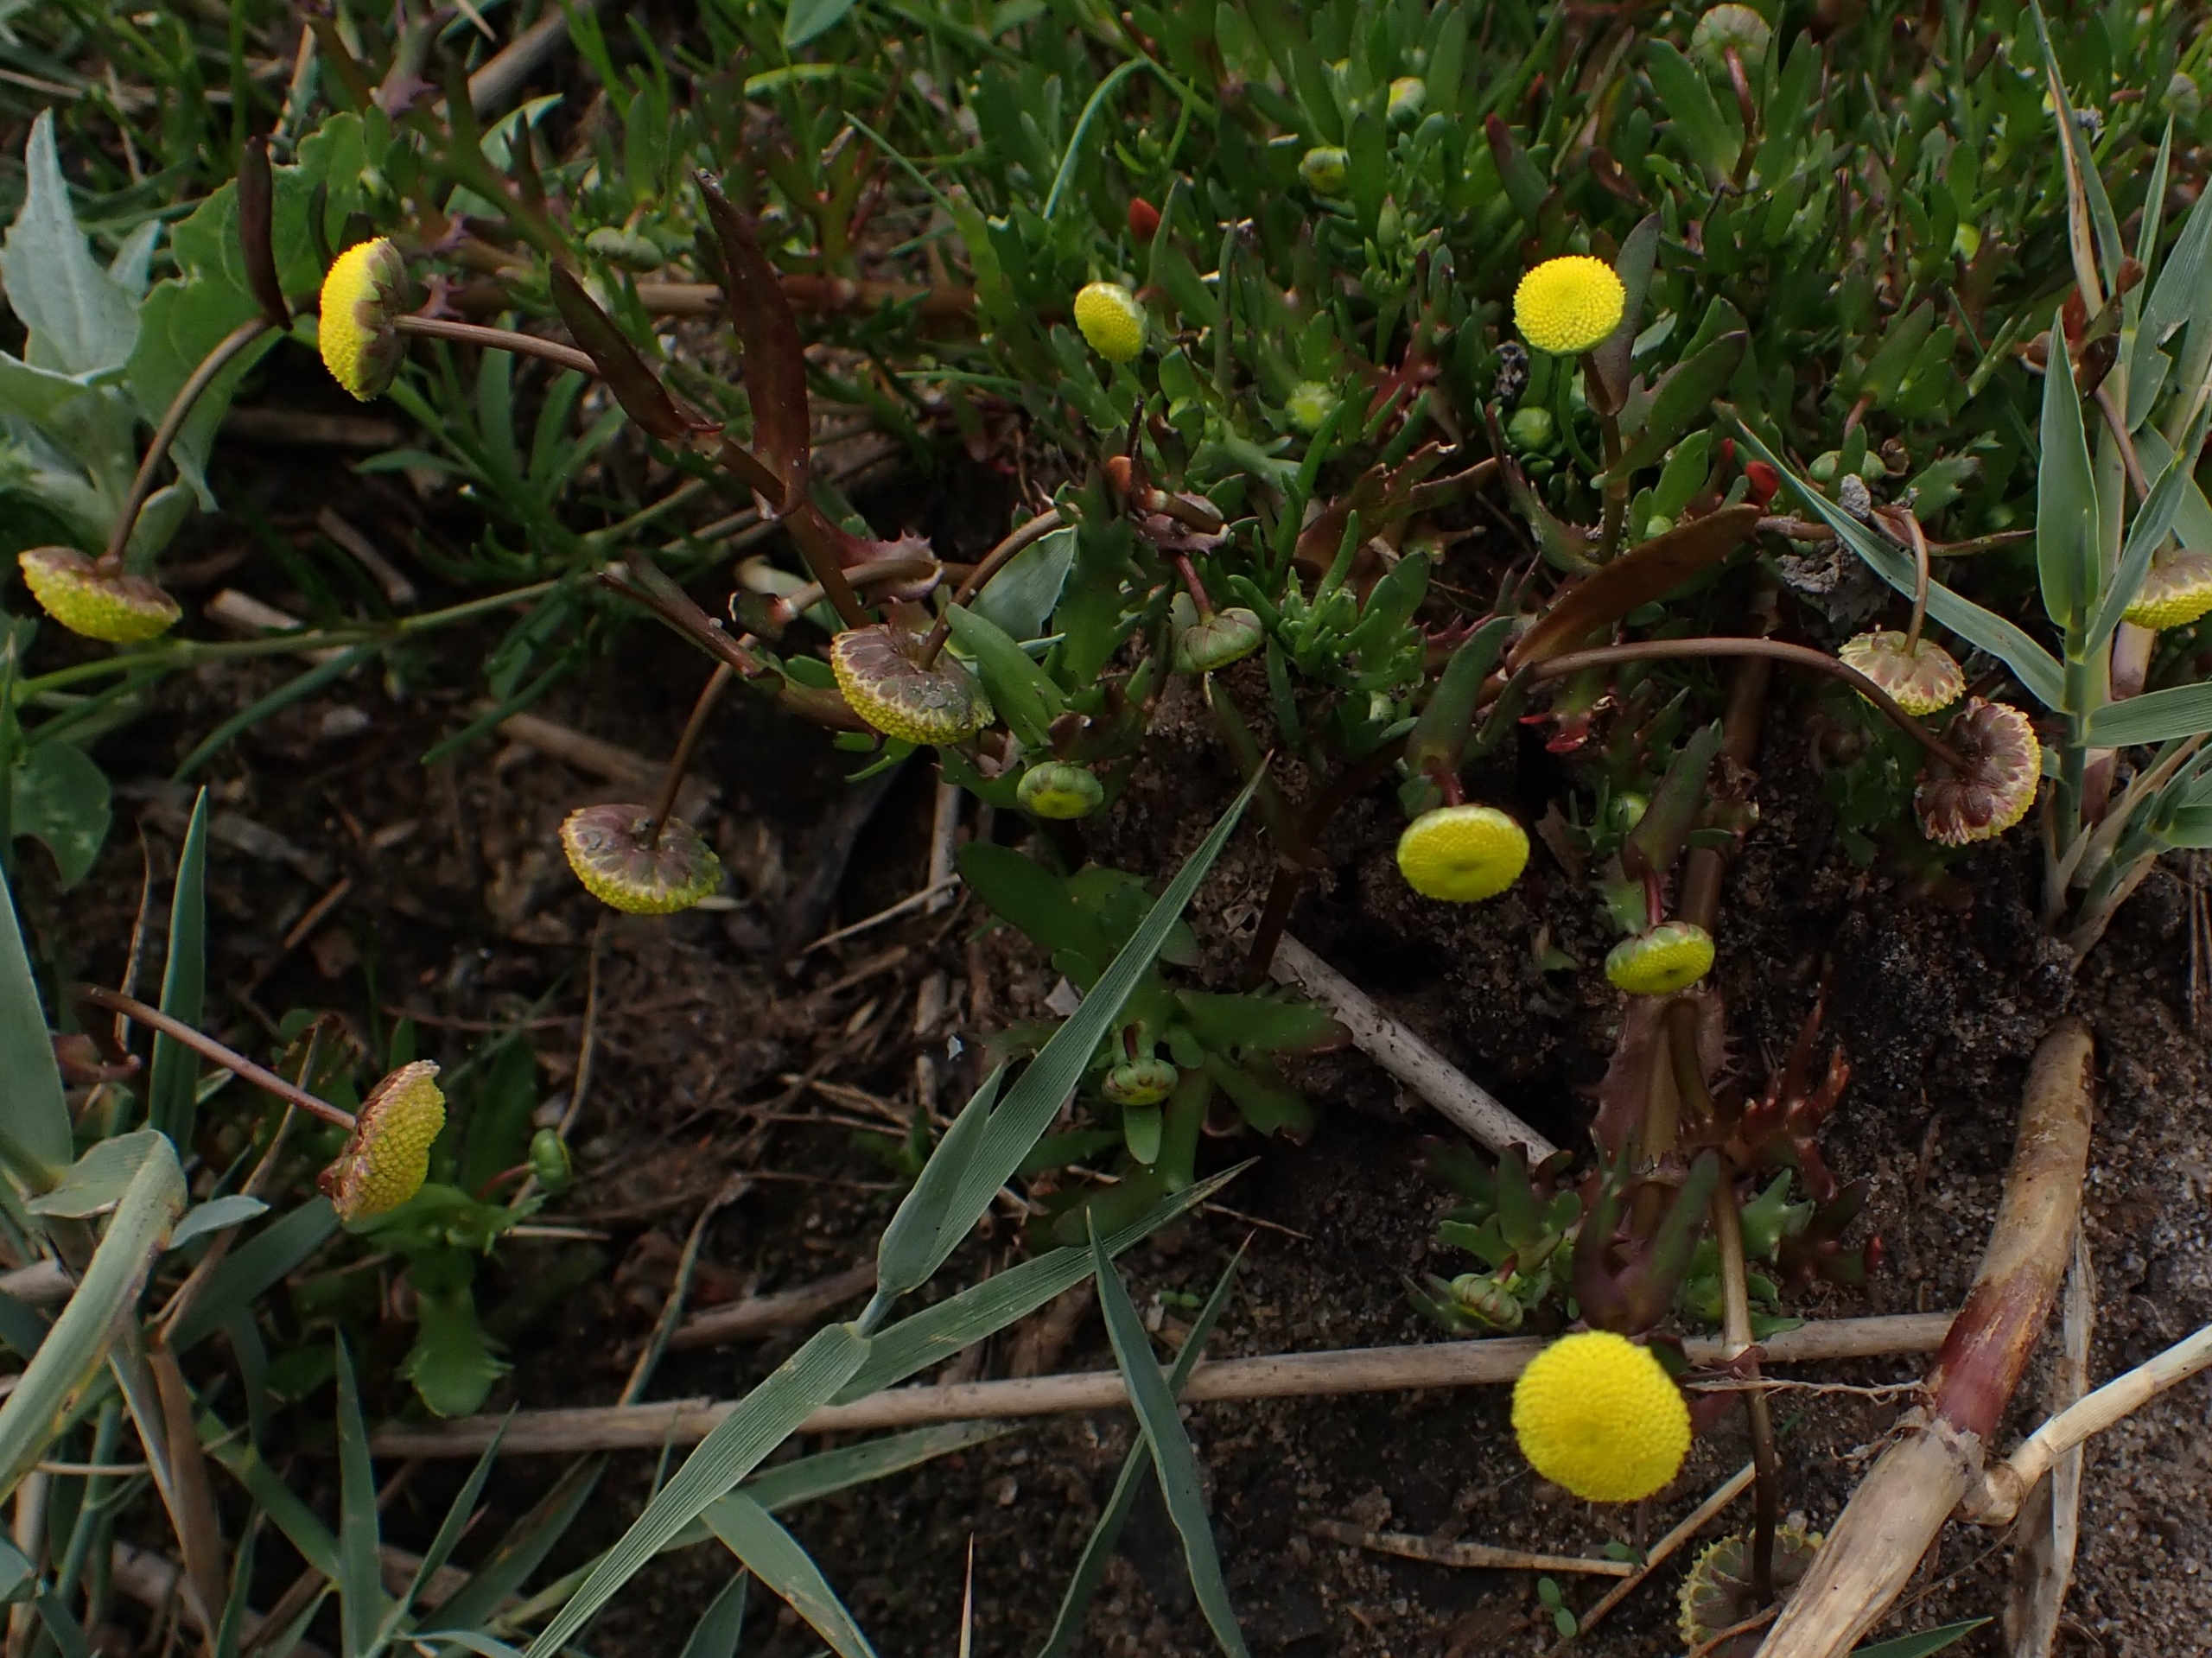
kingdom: Plantae
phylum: Tracheophyta
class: Magnoliopsida
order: Asterales
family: Asteraceae
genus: Cotula
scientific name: Cotula coronopifolia
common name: Firkløft
